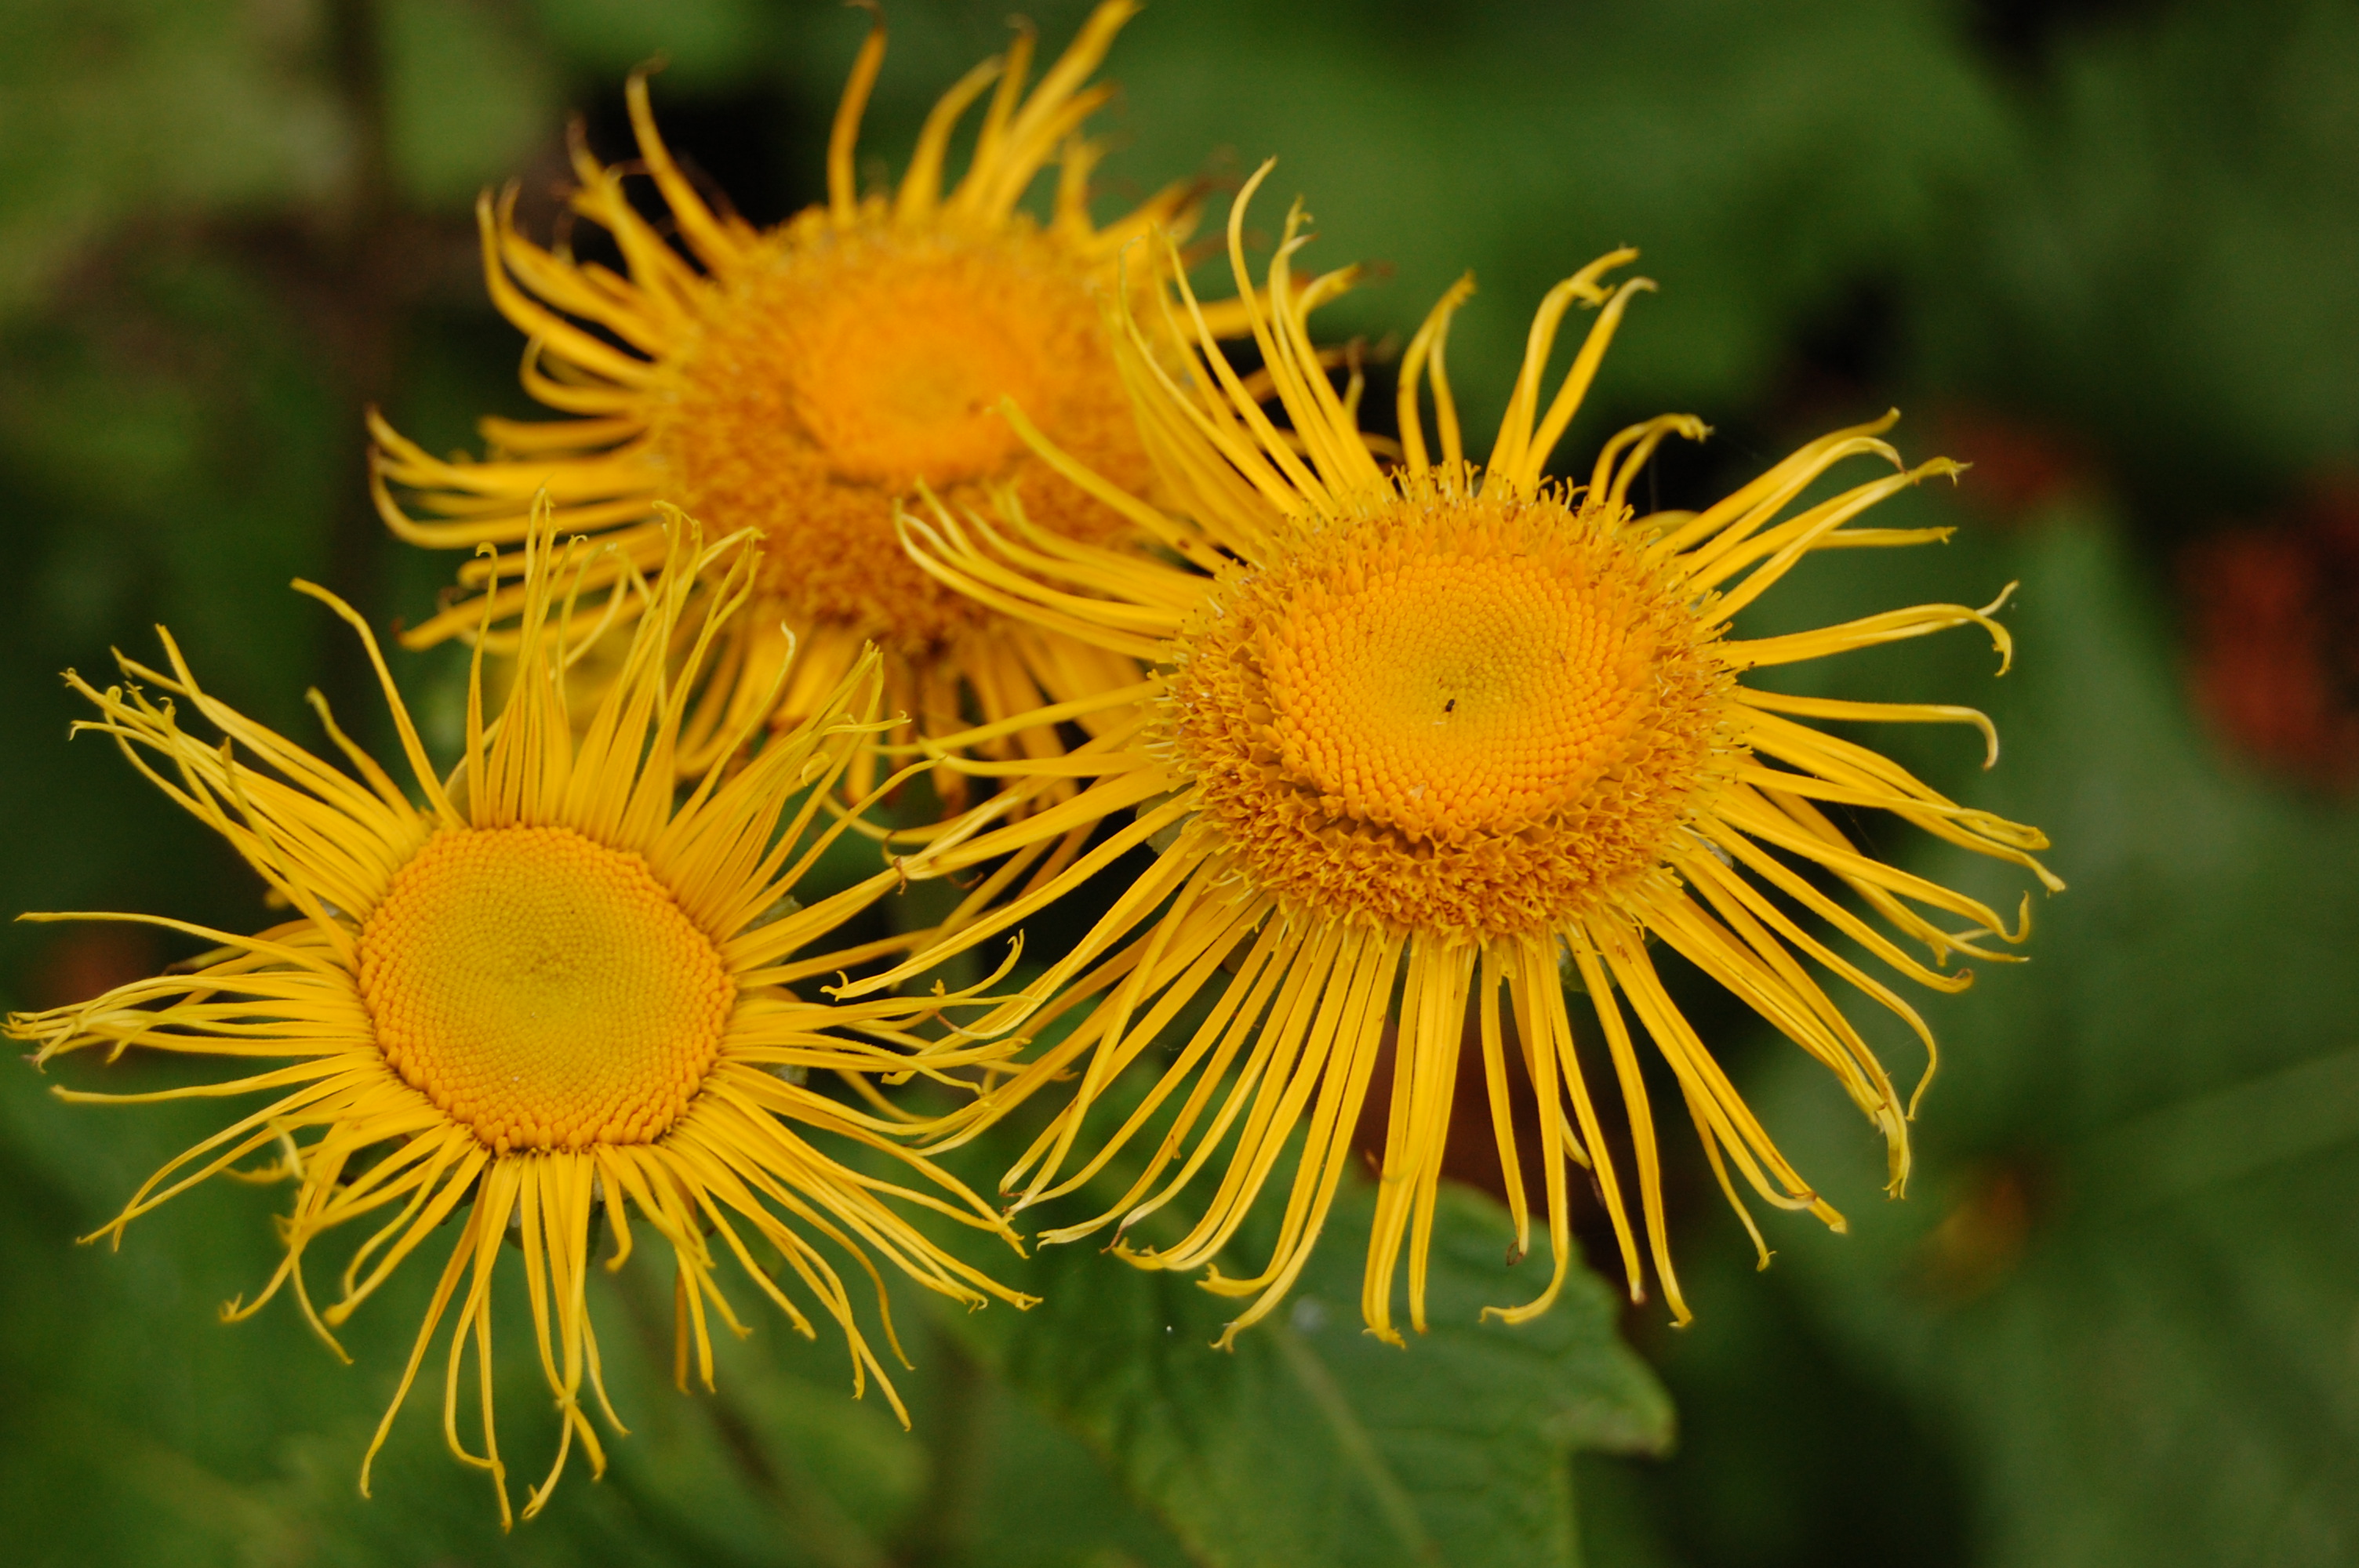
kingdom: Plantae
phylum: Tracheophyta
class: Magnoliopsida
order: Asterales
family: Asteraceae
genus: Telekia
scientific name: Telekia speciosa
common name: Yellow oxeye
